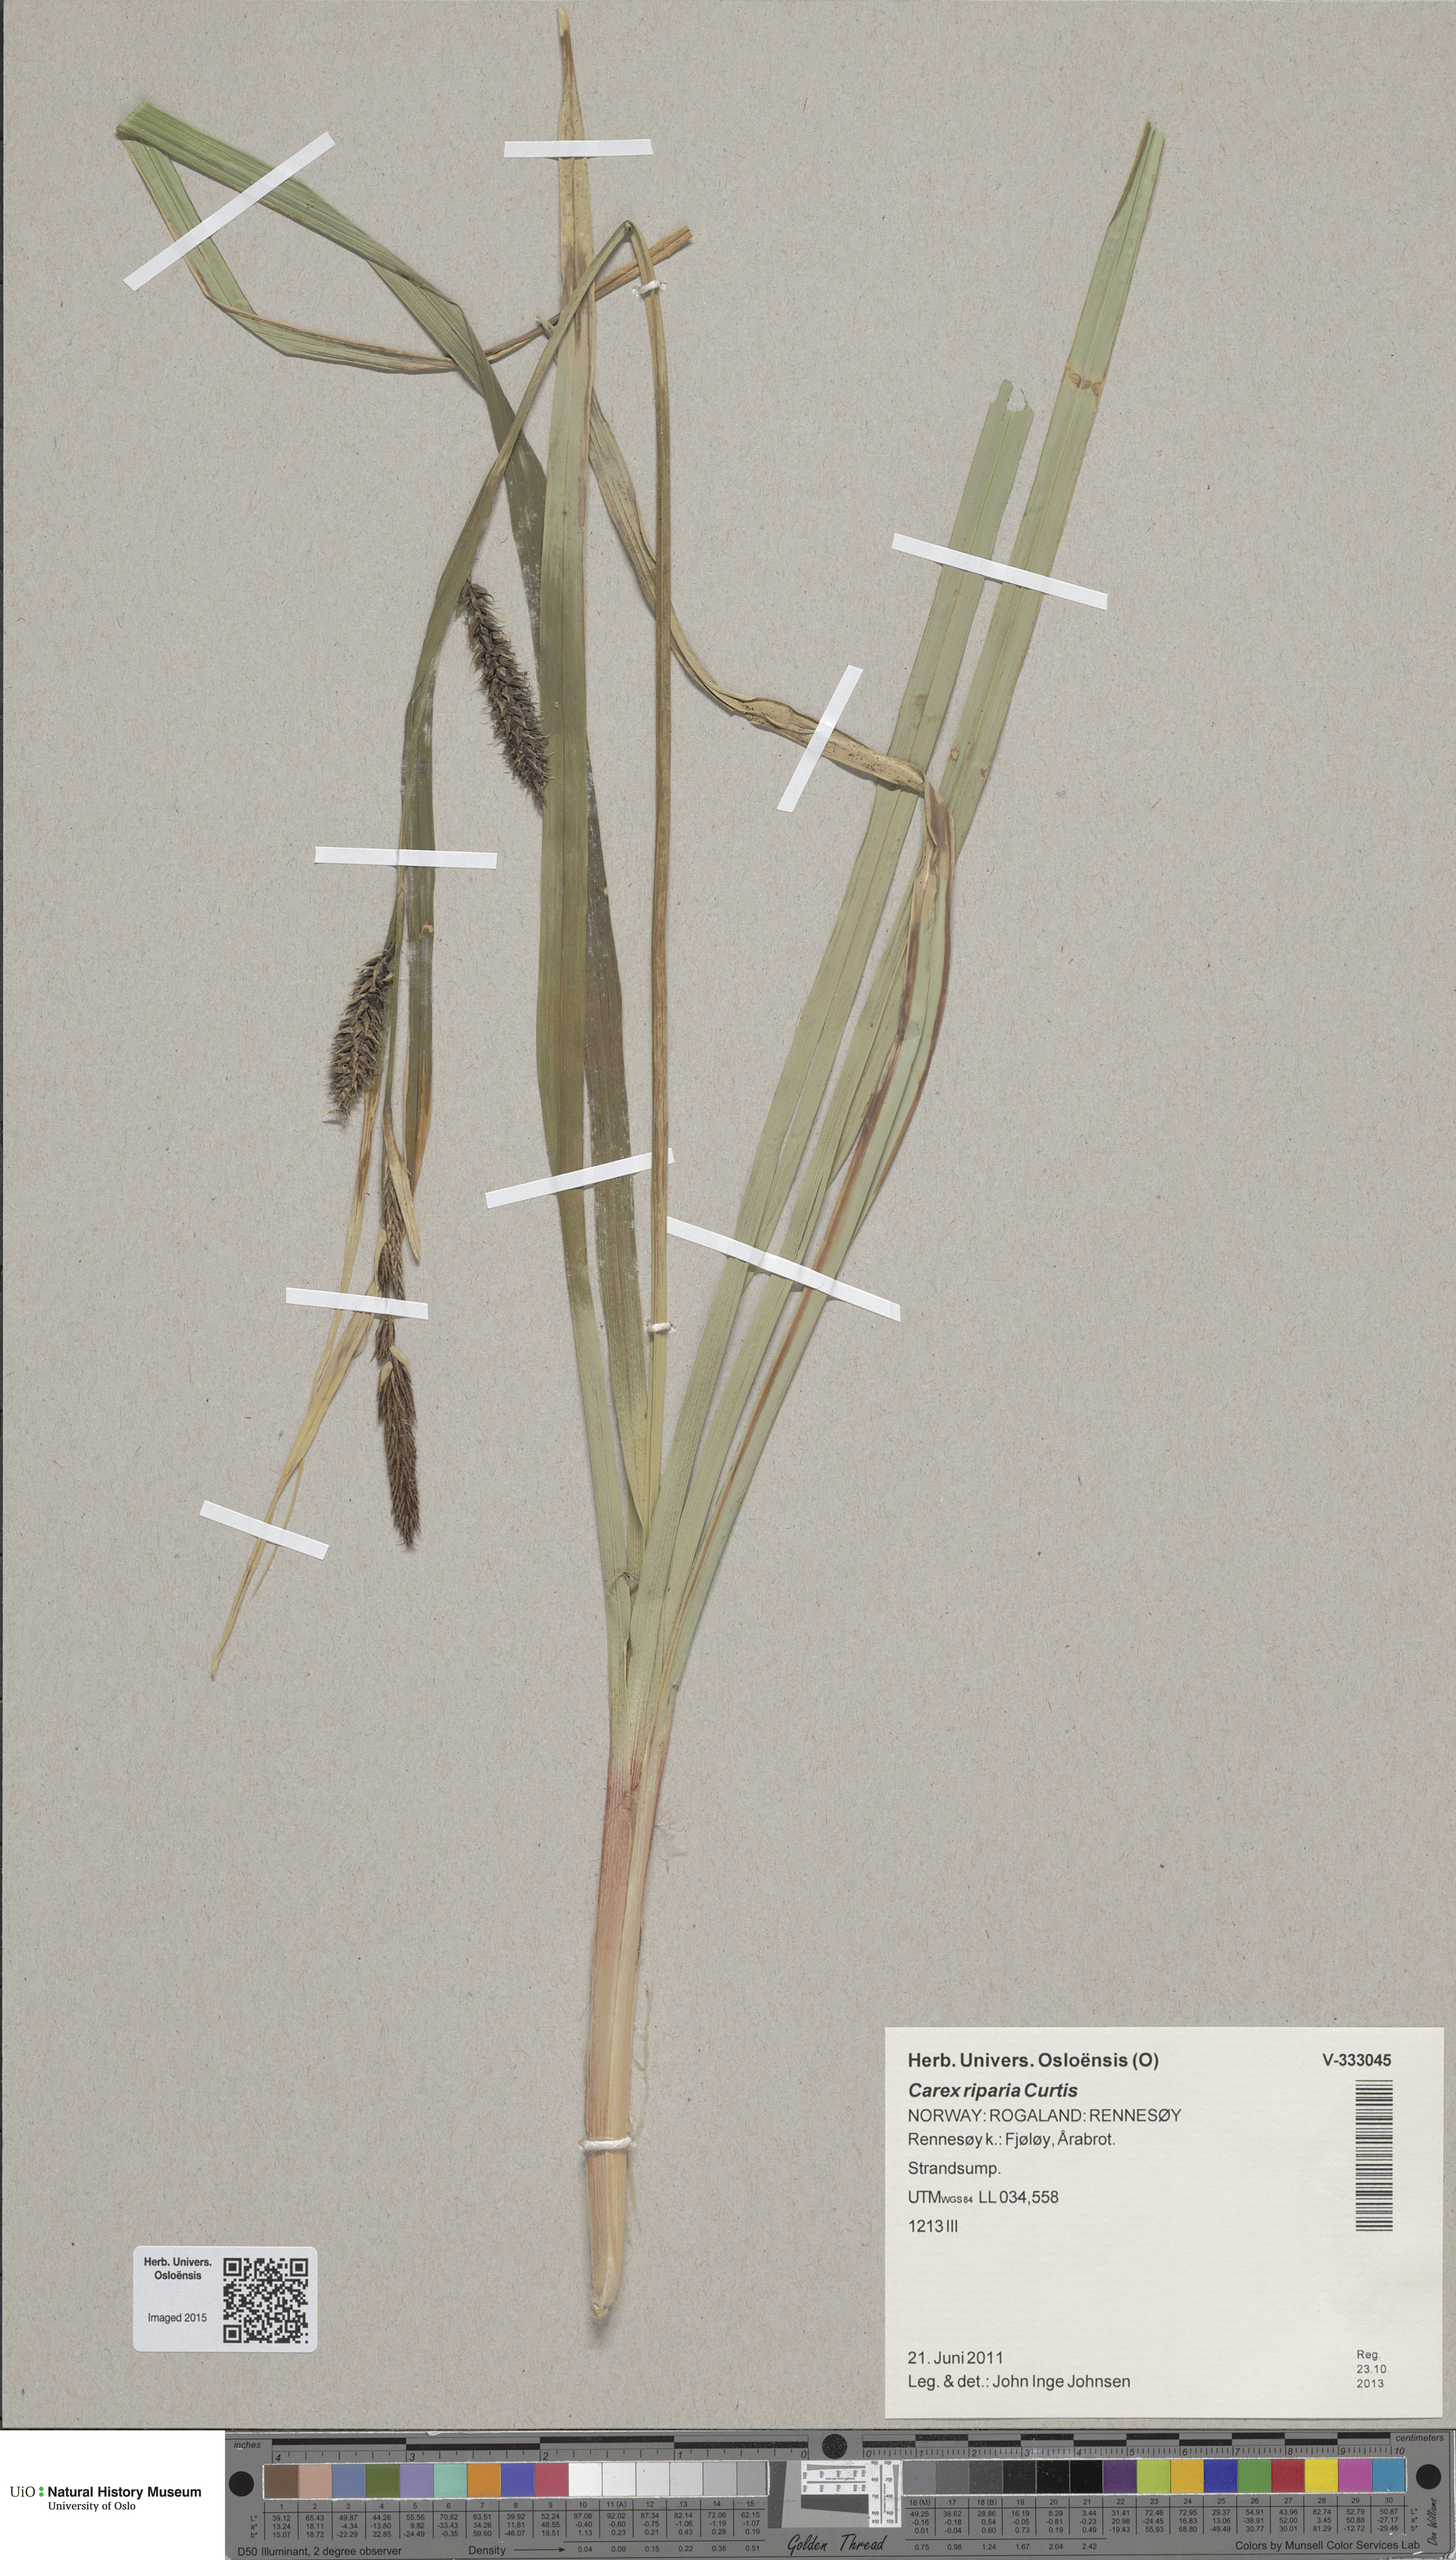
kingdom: Plantae
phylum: Tracheophyta
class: Liliopsida
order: Poales
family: Cyperaceae
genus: Carex
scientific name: Carex riparia
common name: Greater pond-sedge
